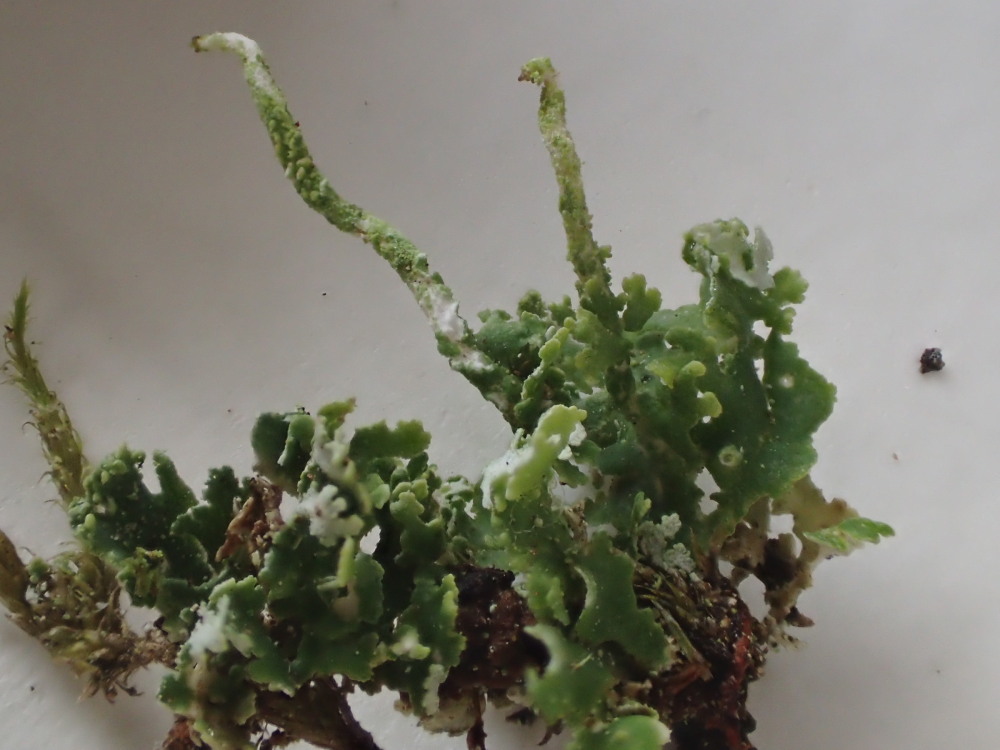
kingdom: Fungi
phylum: Ascomycota
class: Lecanoromycetes
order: Lecanorales
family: Cladoniaceae
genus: Cladonia
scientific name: Cladonia coniocraea
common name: træfods-bægerlav
